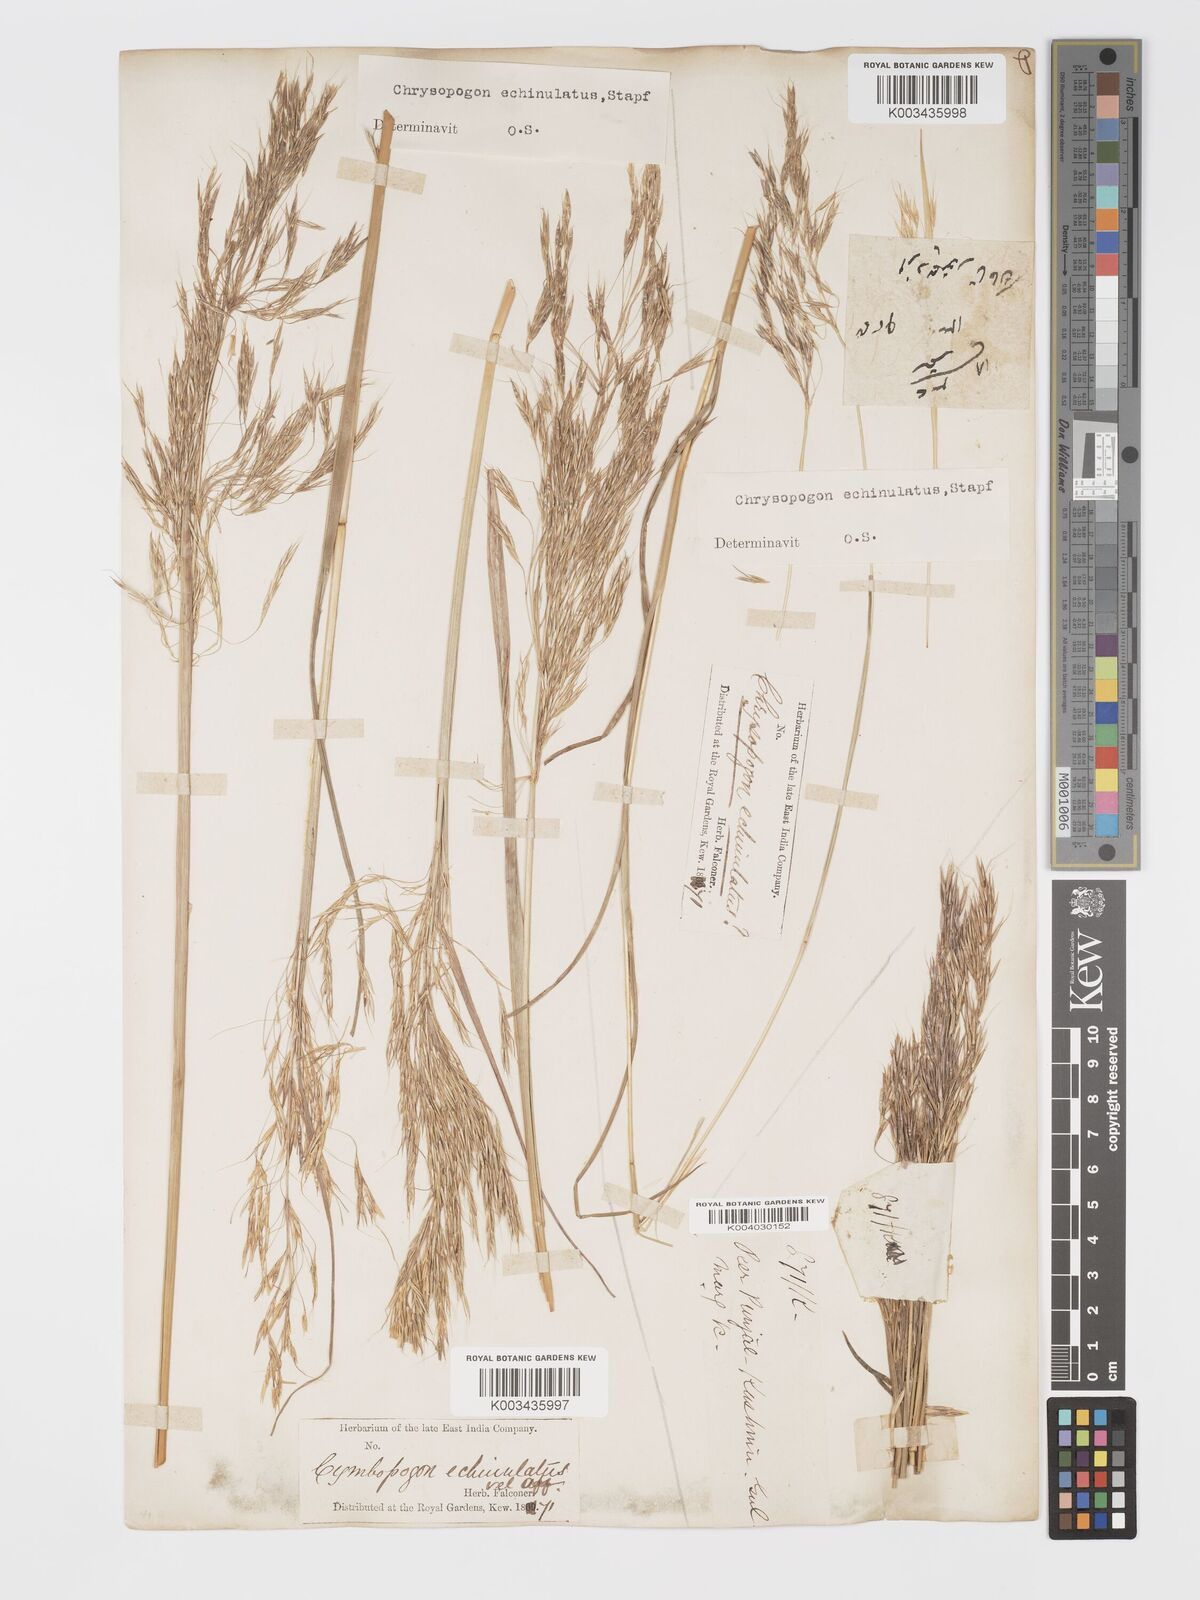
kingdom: Plantae
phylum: Tracheophyta
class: Liliopsida
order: Poales
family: Poaceae
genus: Chrysopogon
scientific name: Chrysopogon gryllus
